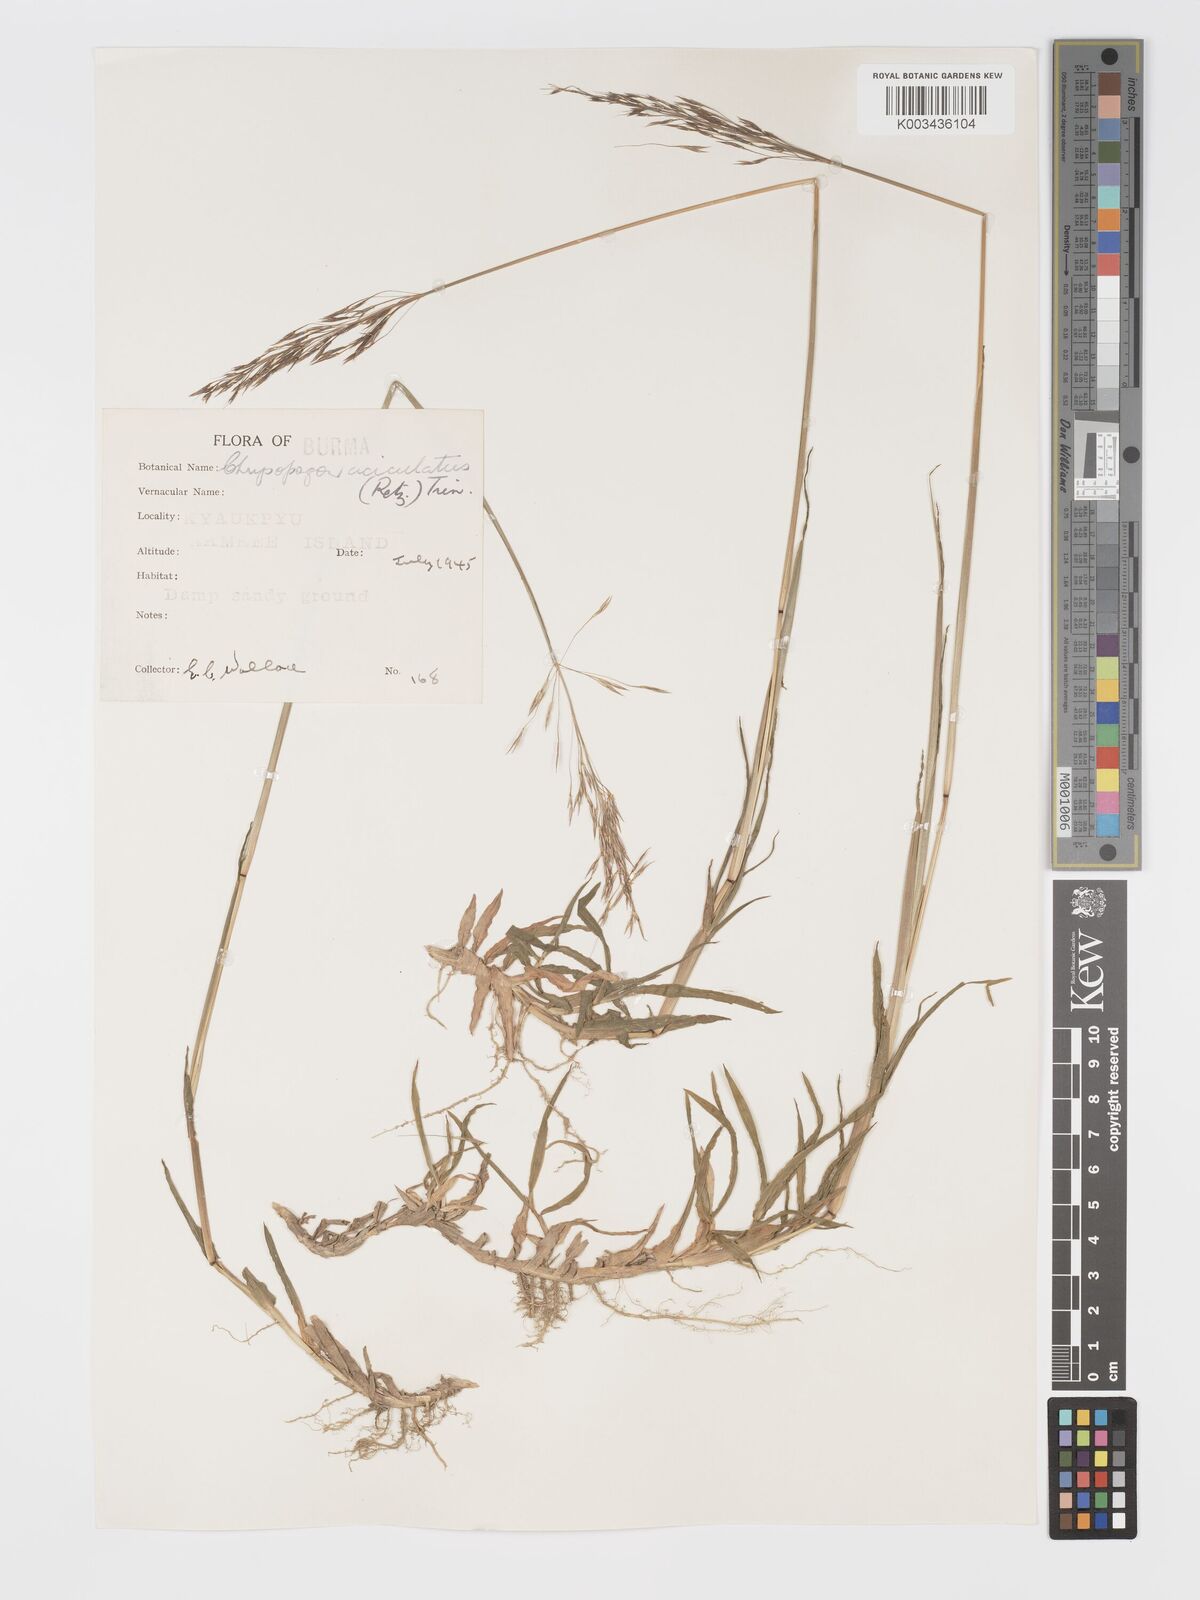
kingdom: Plantae
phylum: Tracheophyta
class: Liliopsida
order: Poales
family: Poaceae
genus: Chrysopogon
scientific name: Chrysopogon aciculatus
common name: Pilipiliula
